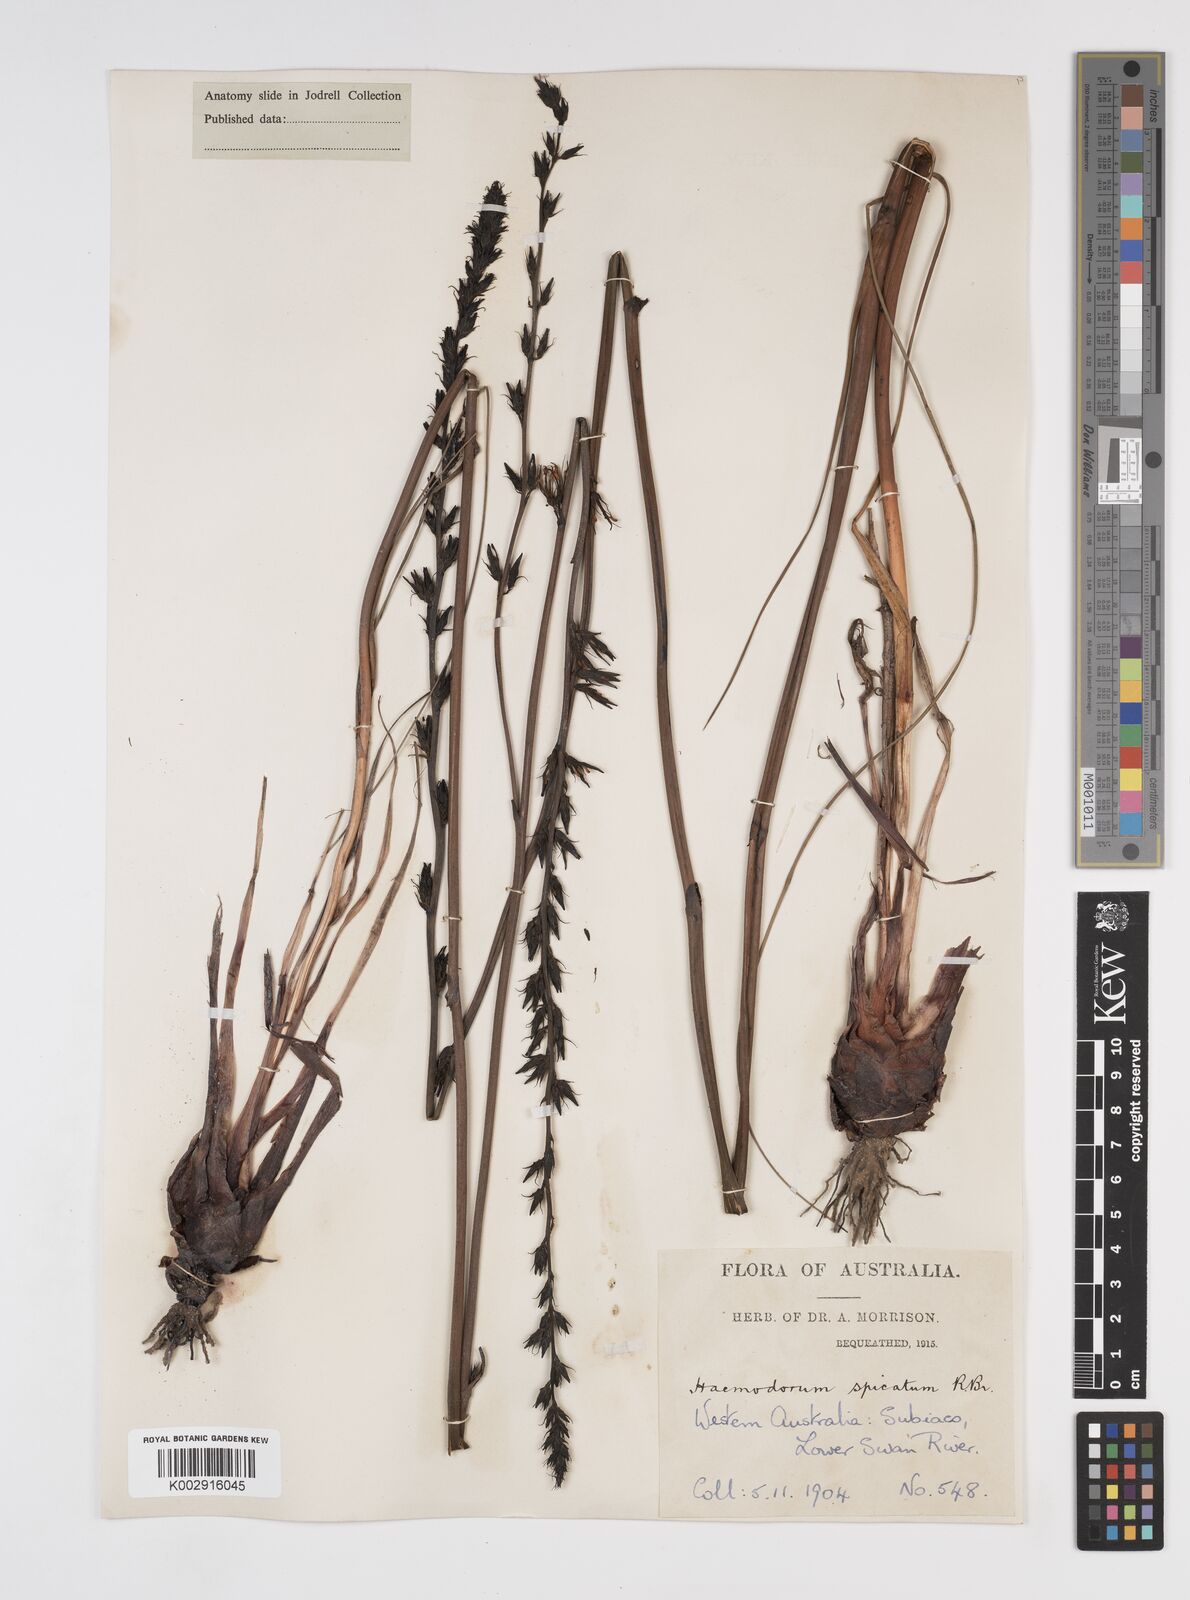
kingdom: Plantae
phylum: Tracheophyta
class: Liliopsida
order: Commelinales
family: Haemodoraceae
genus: Haemodorum
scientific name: Haemodorum spicatum
